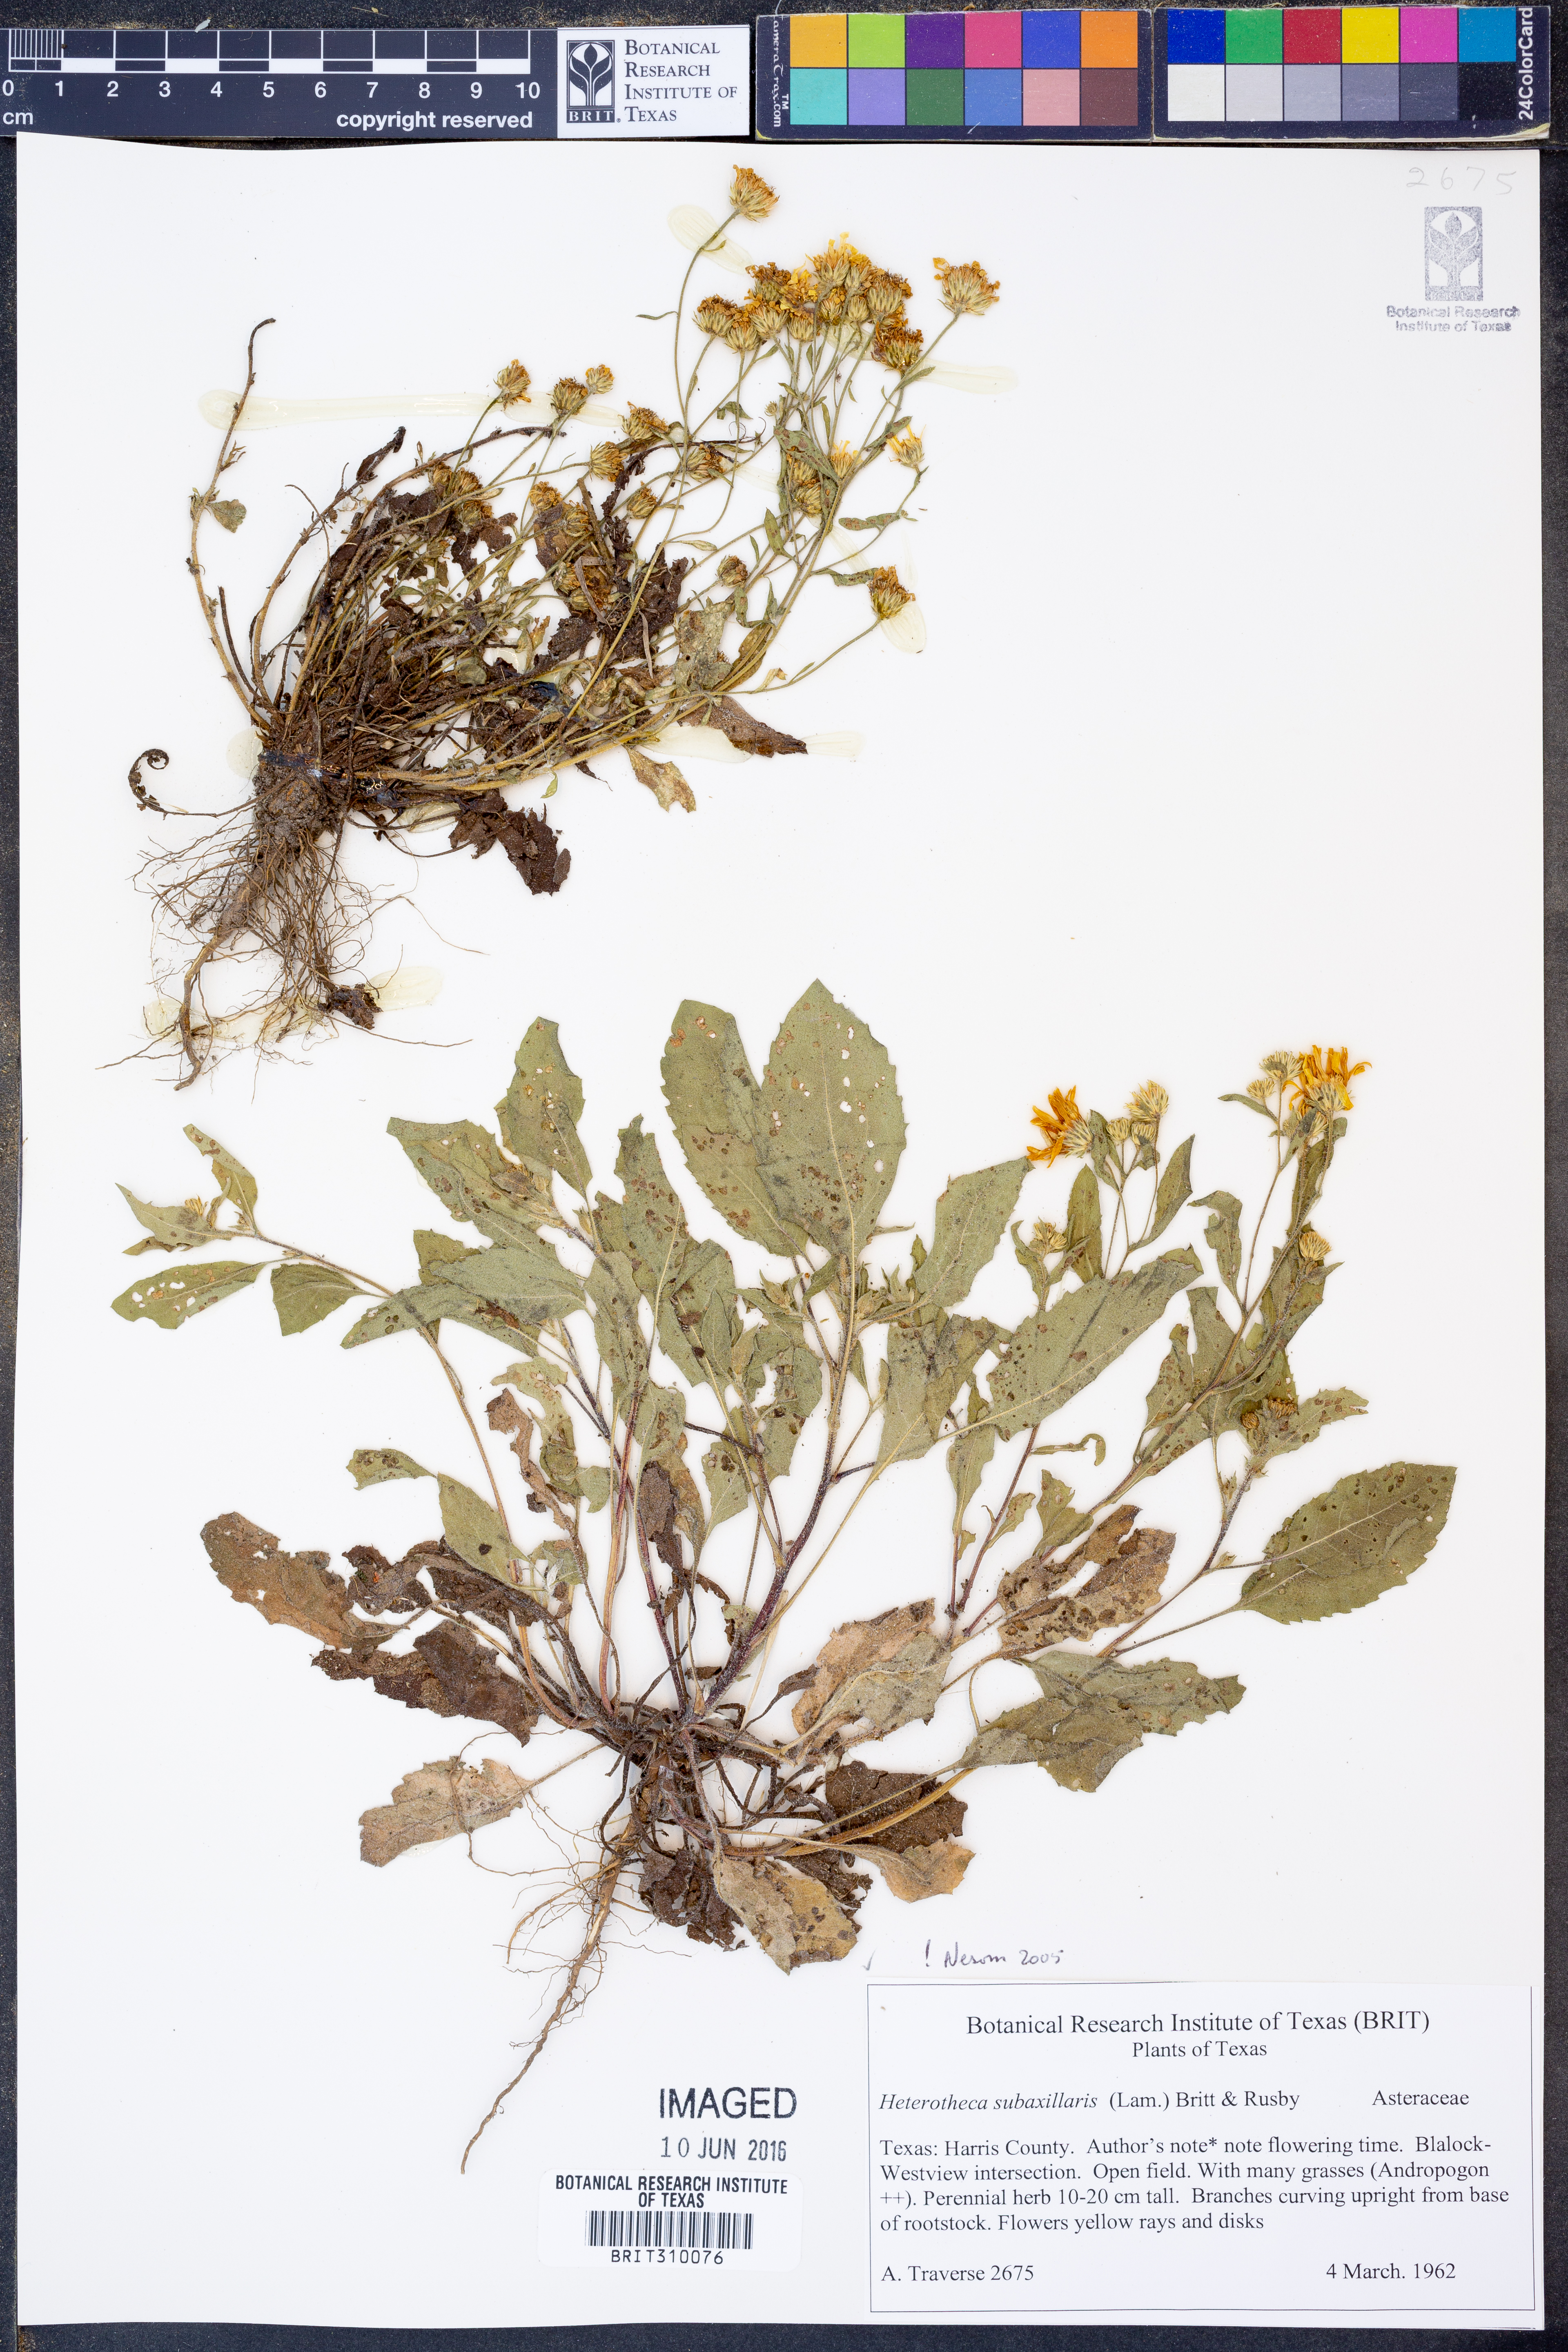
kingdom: Plantae
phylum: Tracheophyta
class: Magnoliopsida
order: Asterales
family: Asteraceae
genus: Heterotheca
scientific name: Heterotheca subaxillaris
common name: Camphorweed
